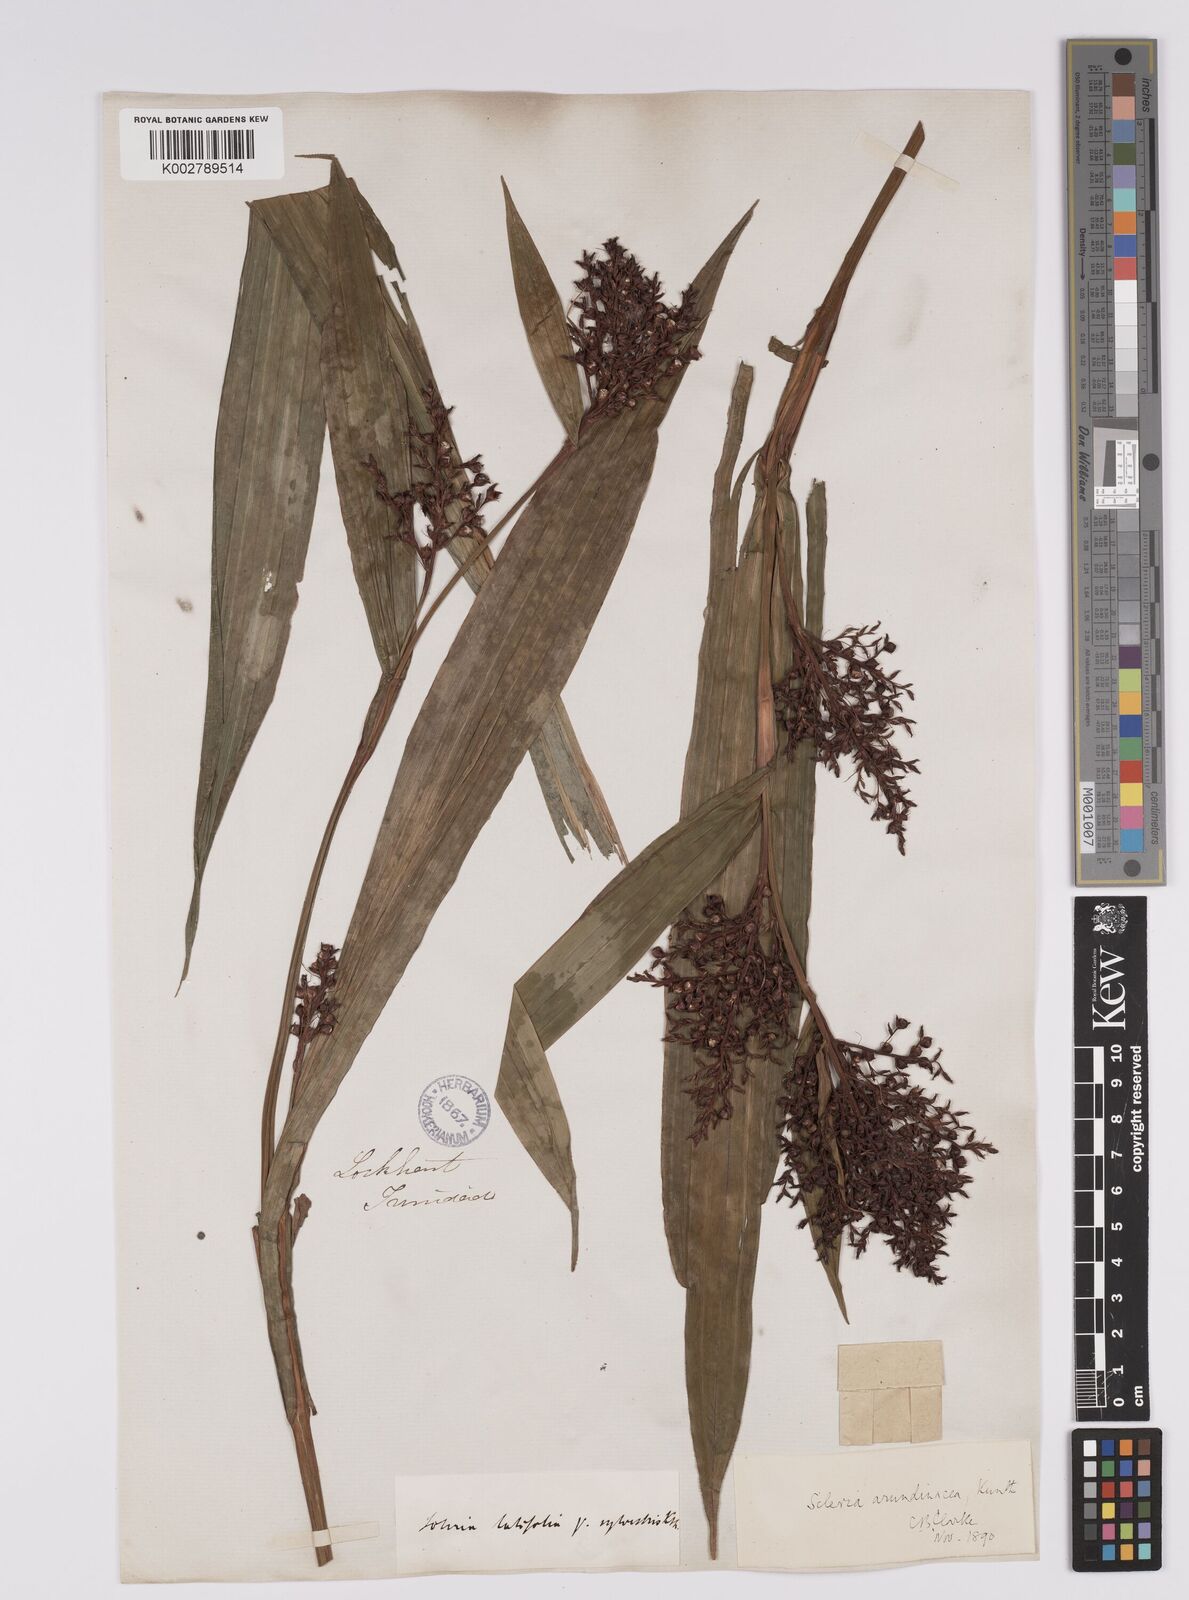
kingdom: Plantae
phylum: Tracheophyta
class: Liliopsida
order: Poales
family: Cyperaceae
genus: Scleria
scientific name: Scleria latifolia
